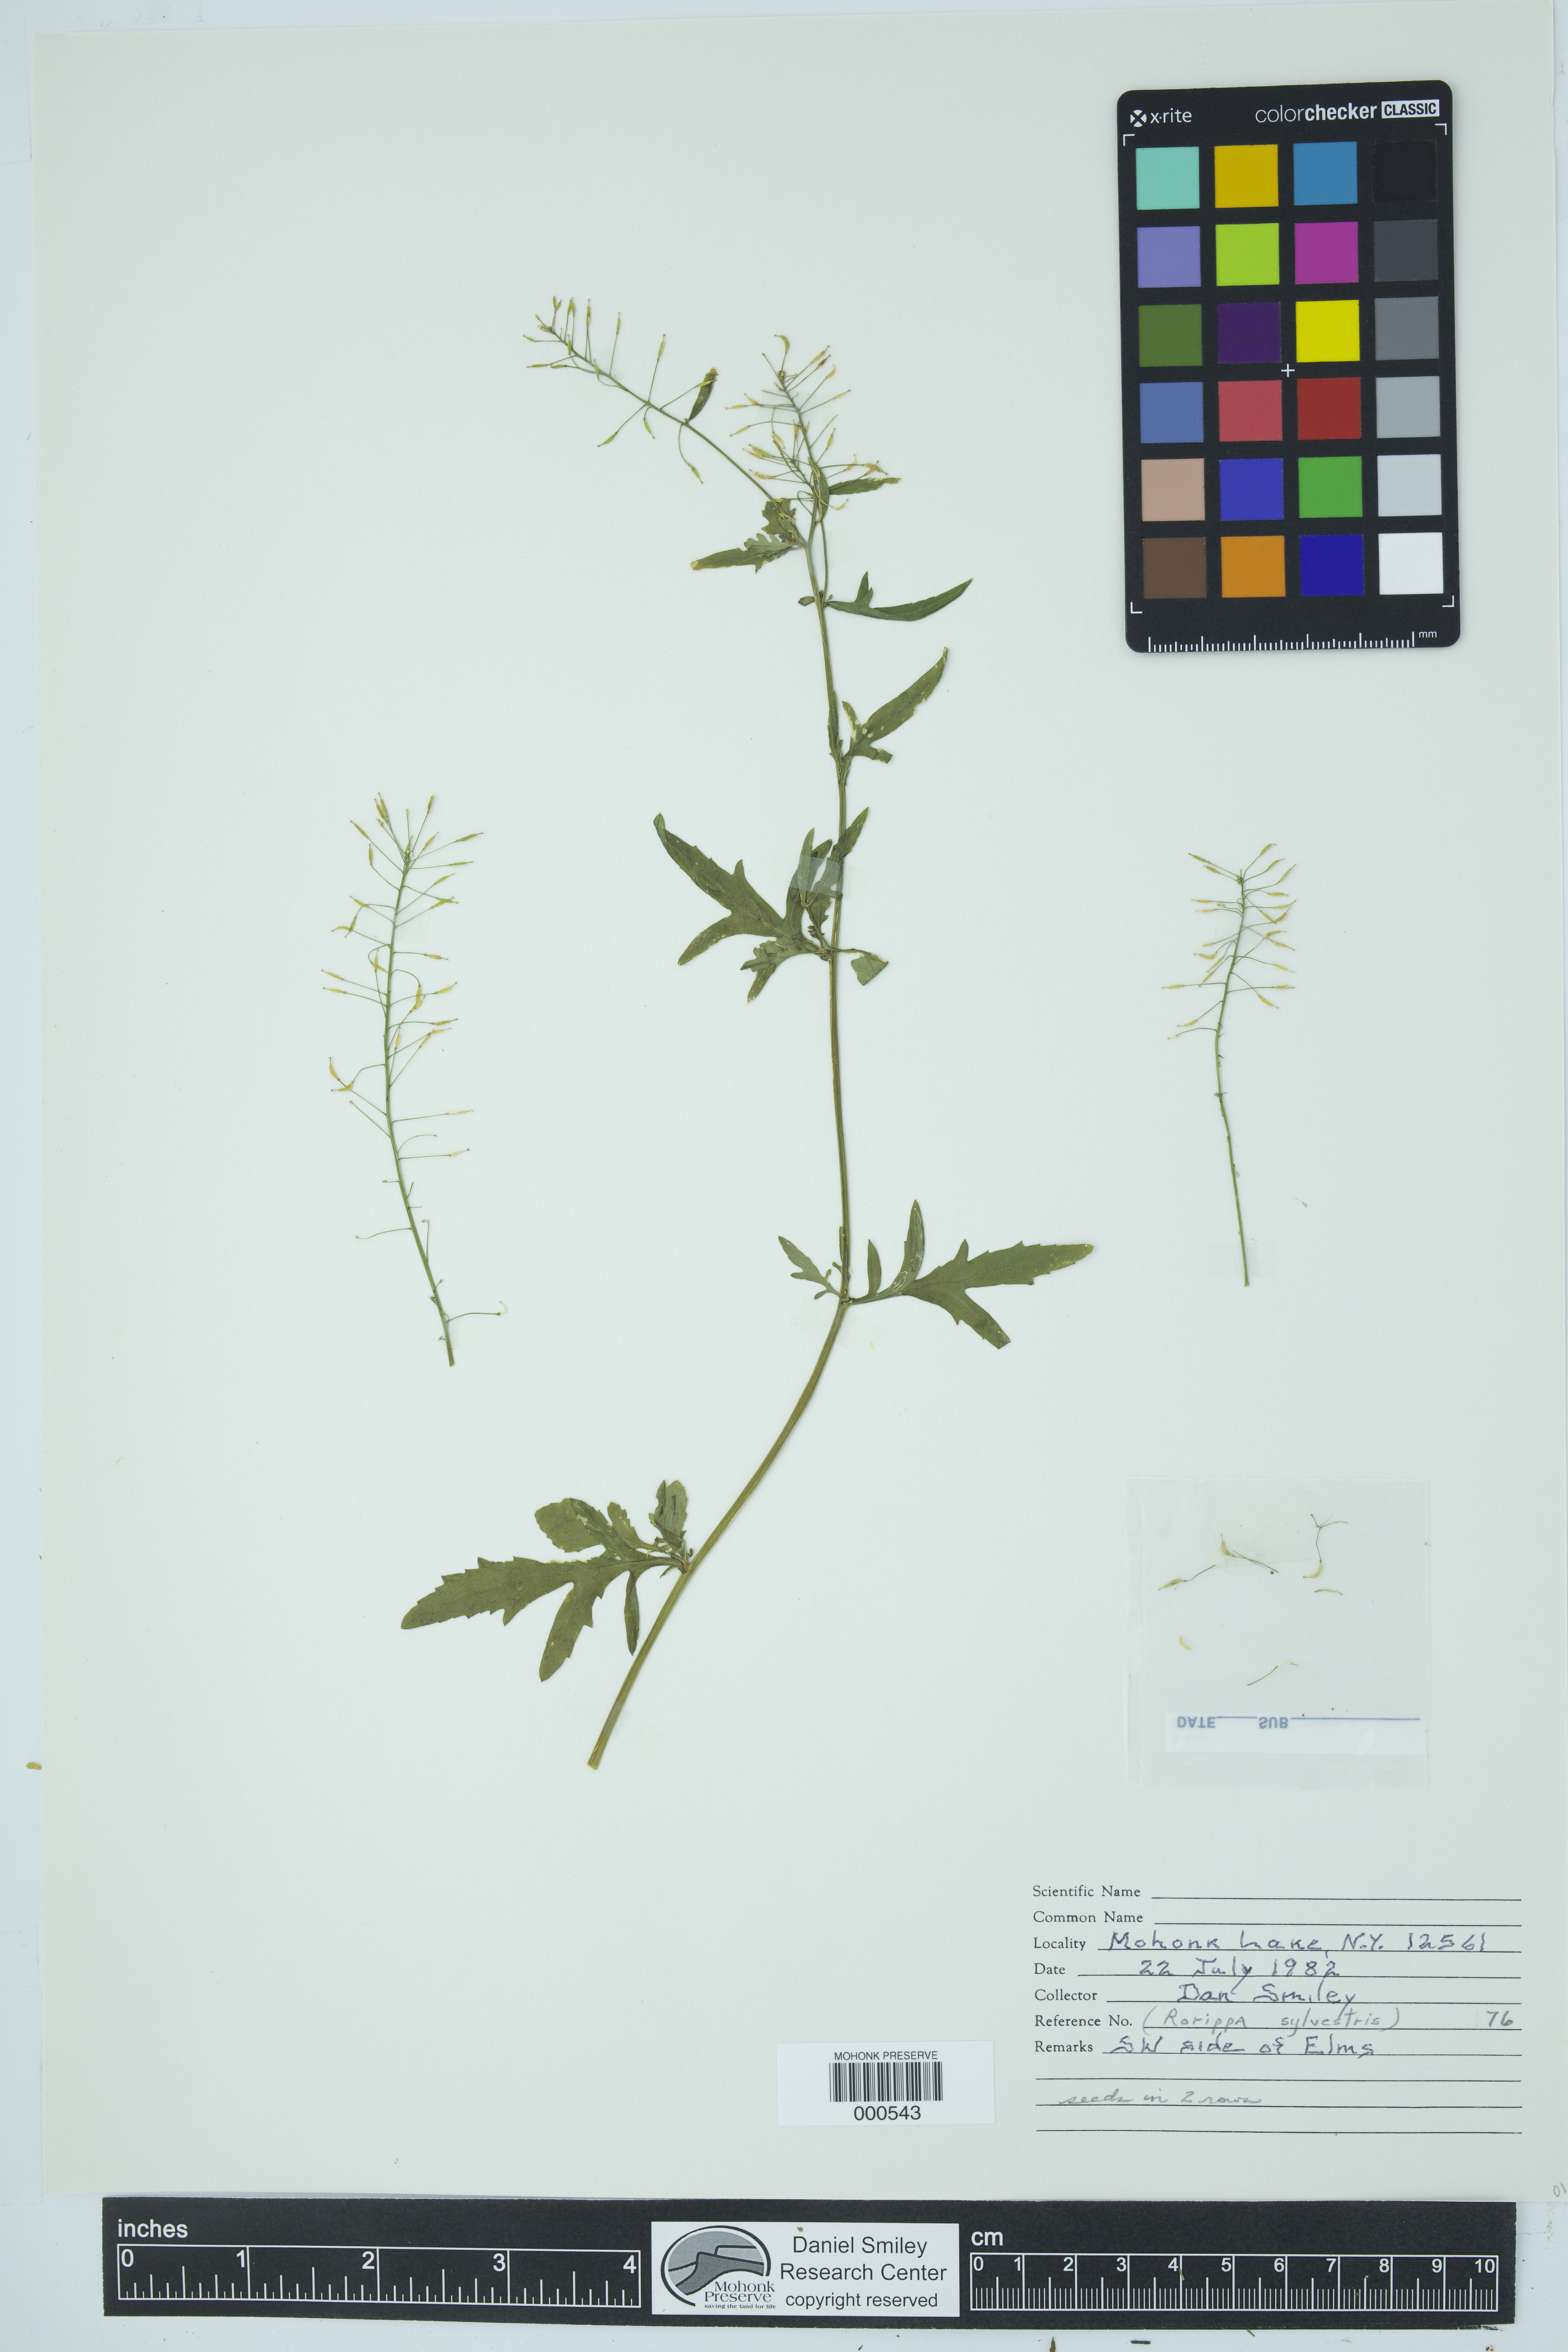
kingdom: Plantae
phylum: Tracheophyta
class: Magnoliopsida
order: Brassicales
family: Brassicaceae
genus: Rorippa
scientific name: Rorippa sylvestris
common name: Creeping yellowcress
